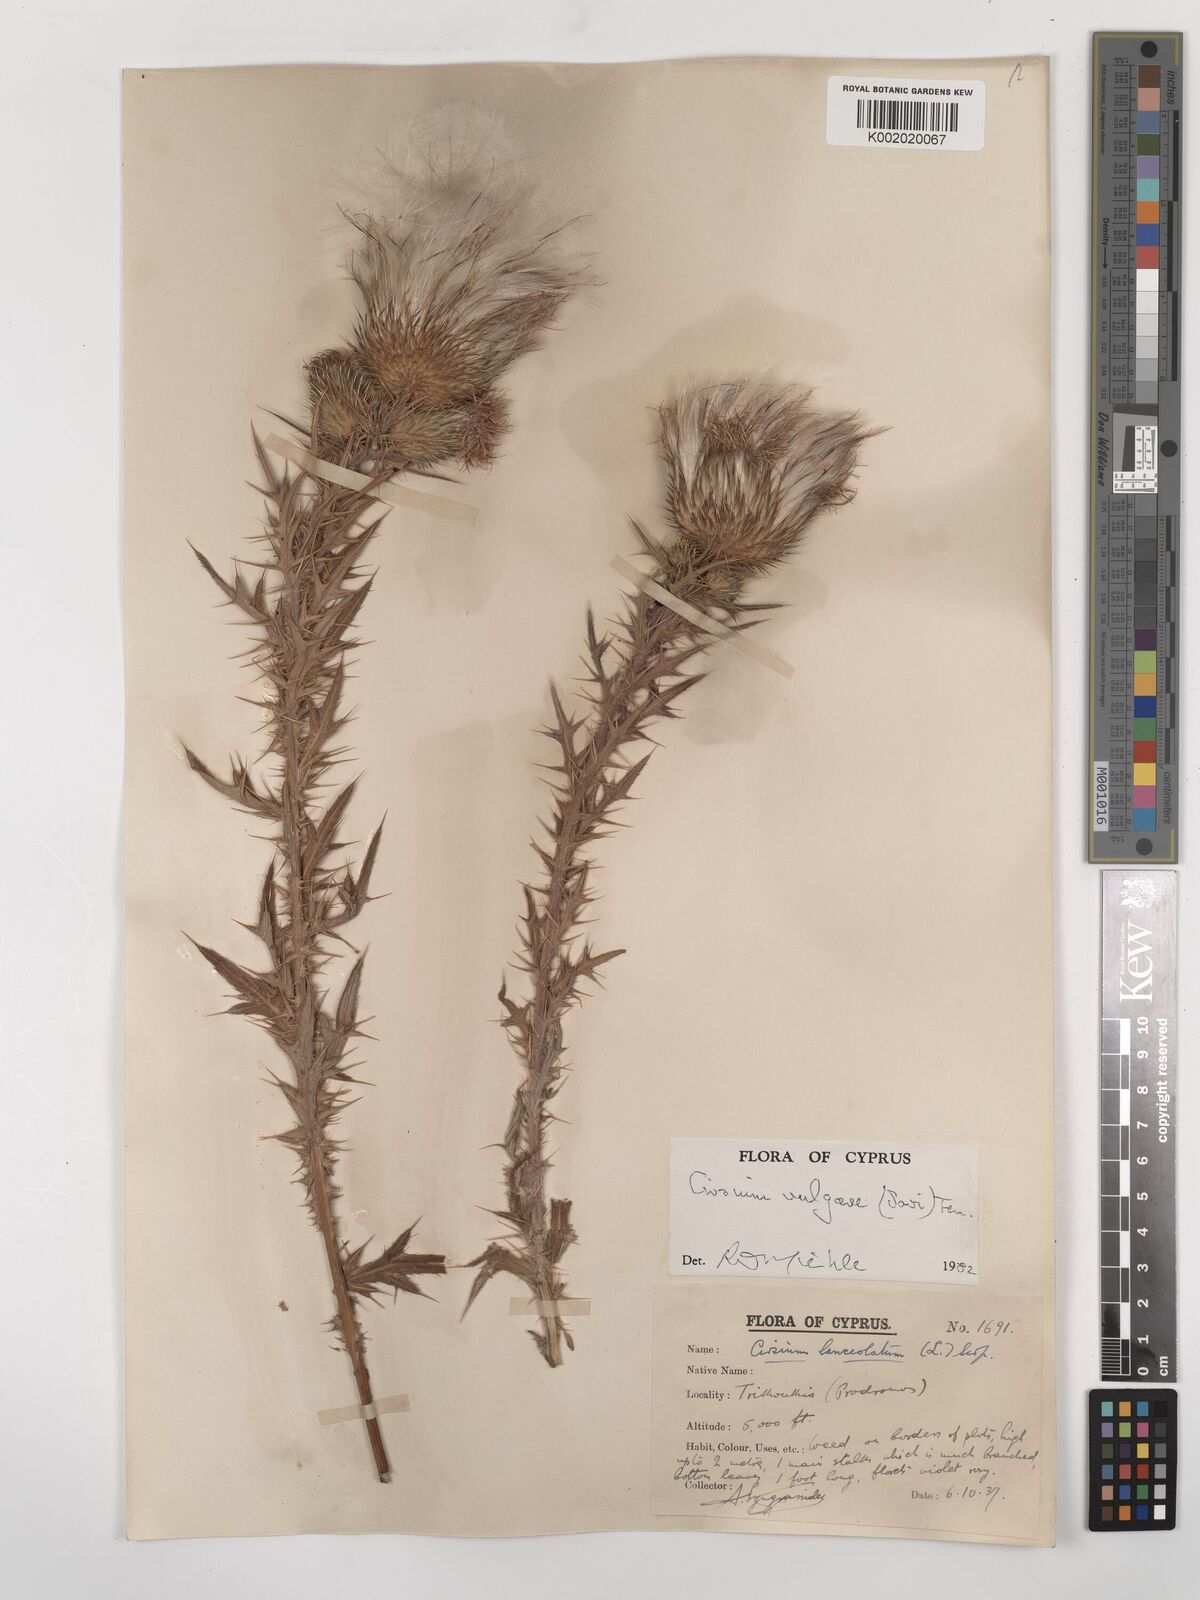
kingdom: Plantae
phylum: Tracheophyta
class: Magnoliopsida
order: Asterales
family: Asteraceae
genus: Cirsium
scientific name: Cirsium vulgare
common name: Bull thistle
